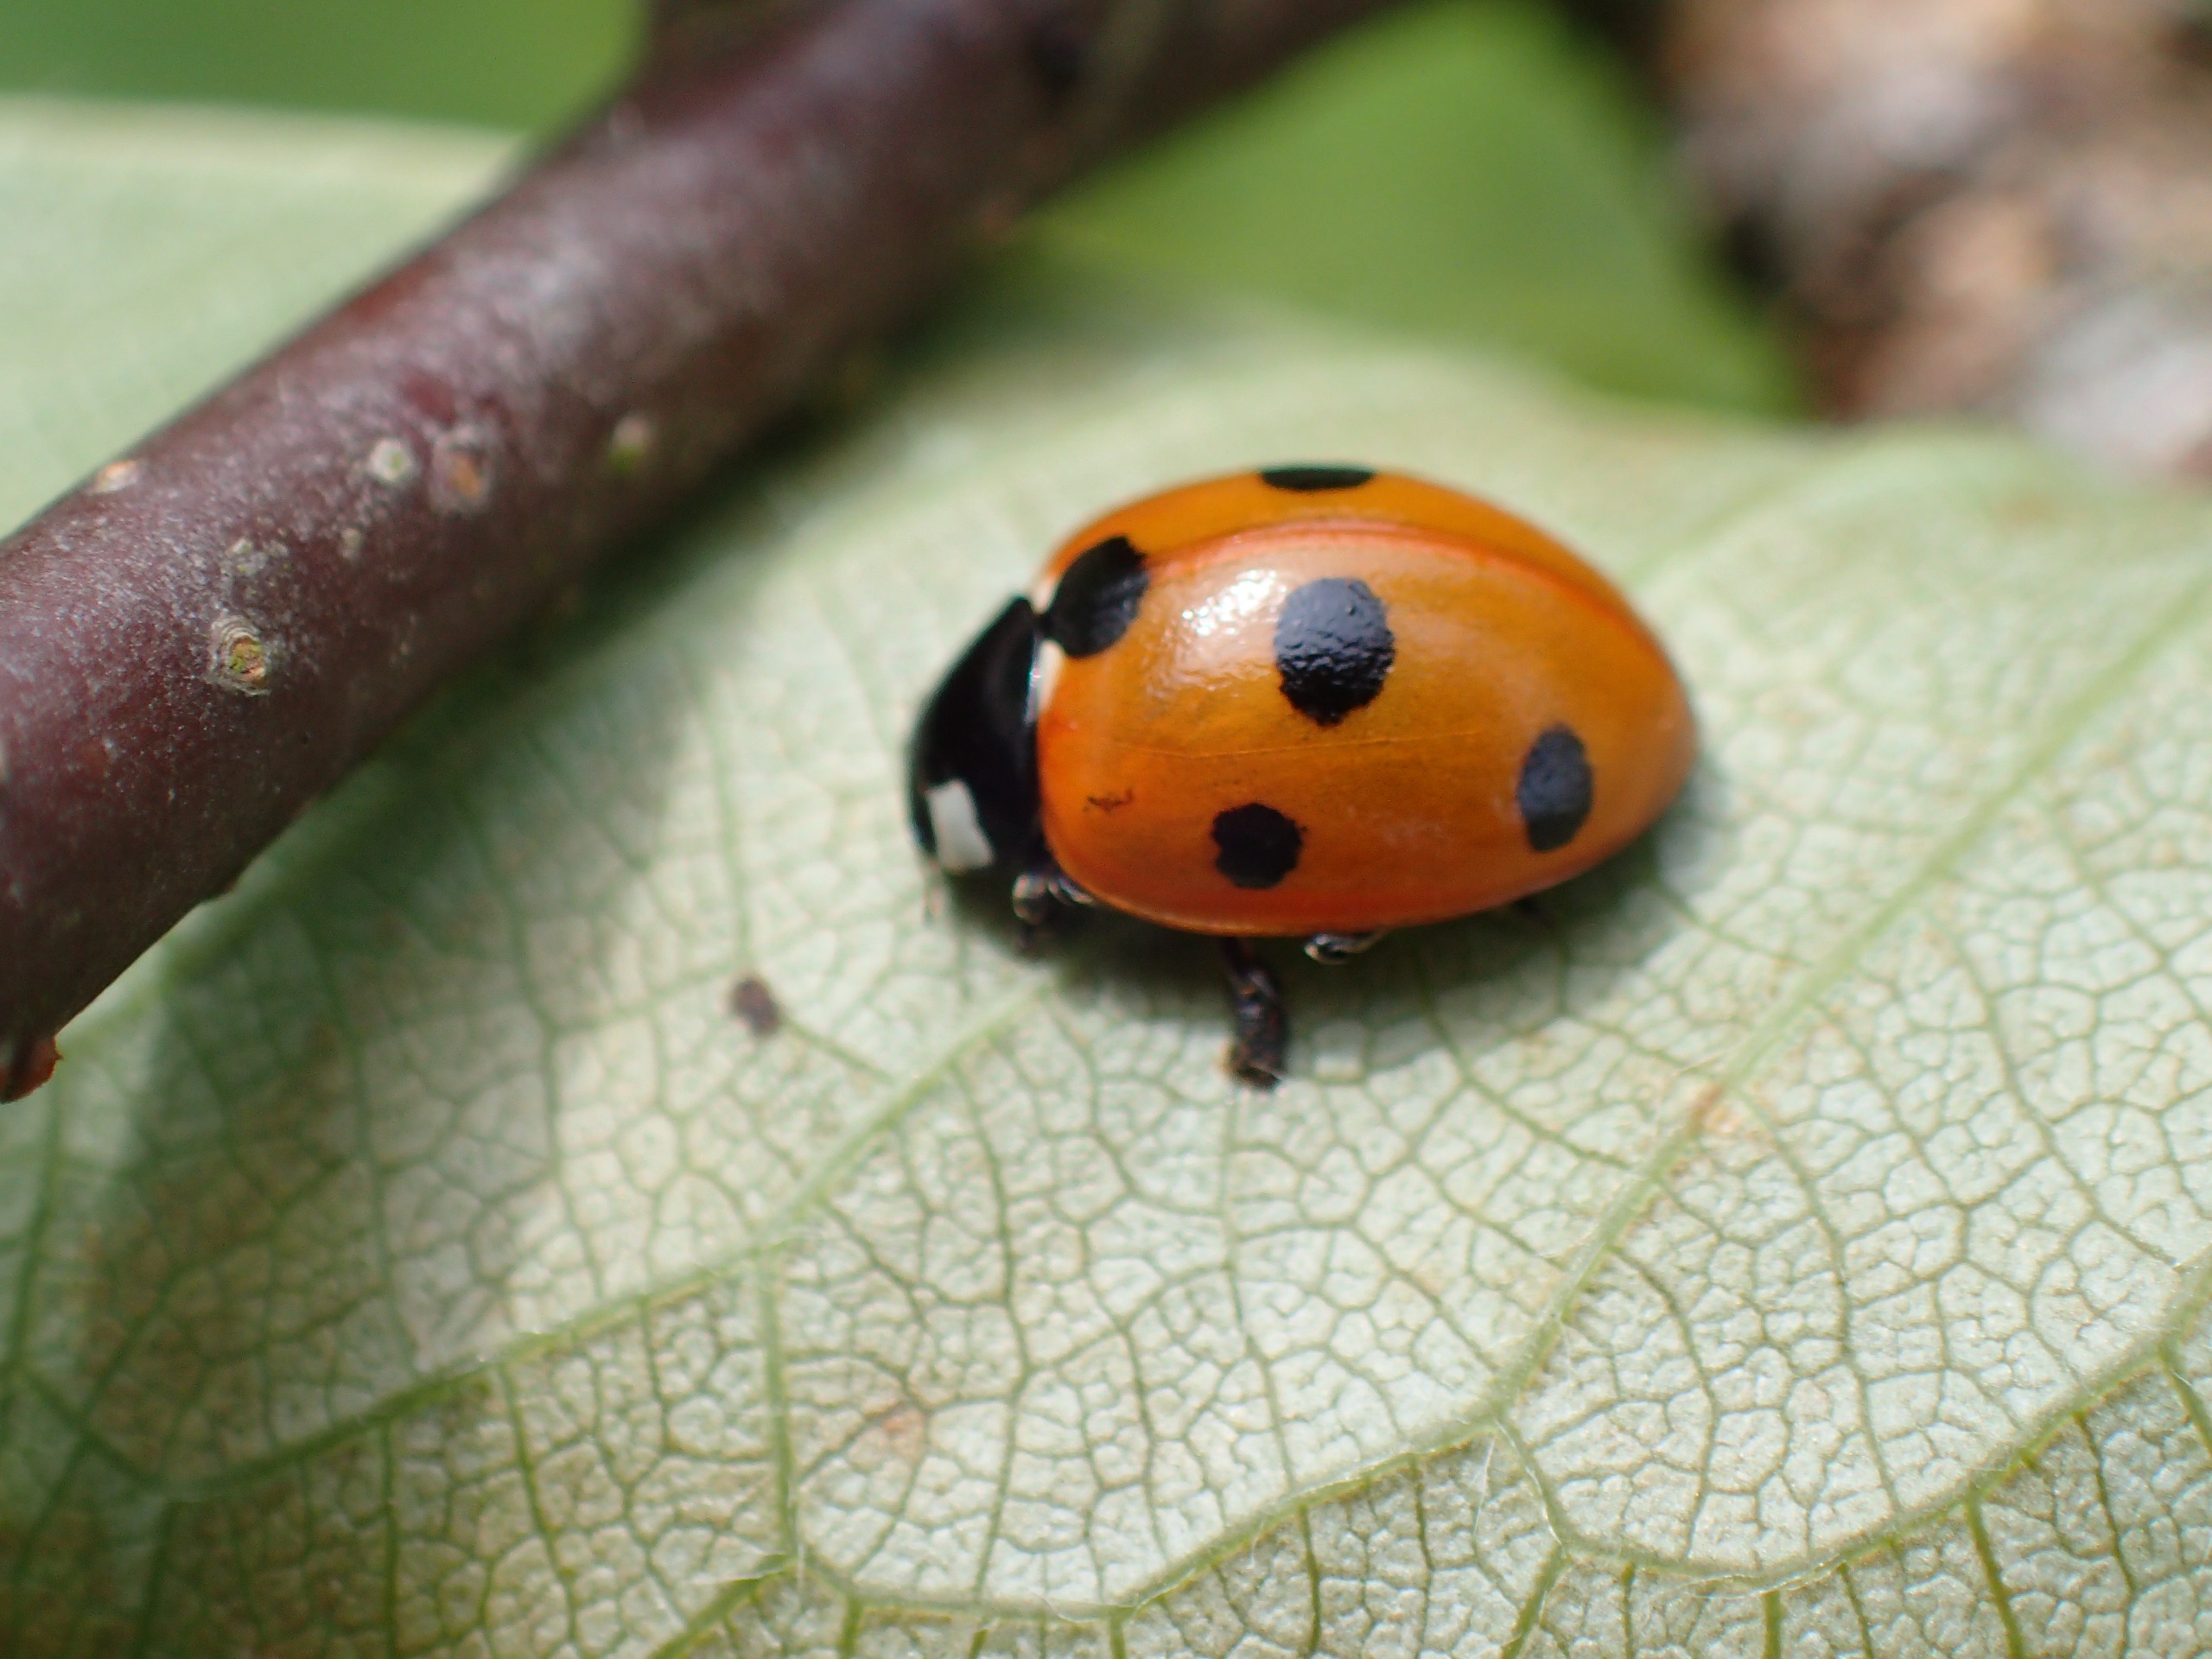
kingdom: Animalia
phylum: Arthropoda
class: Insecta
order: Coleoptera
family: Coccinellidae
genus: Coccinella
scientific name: Coccinella septempunctata
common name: Syvplettet mariehøne
